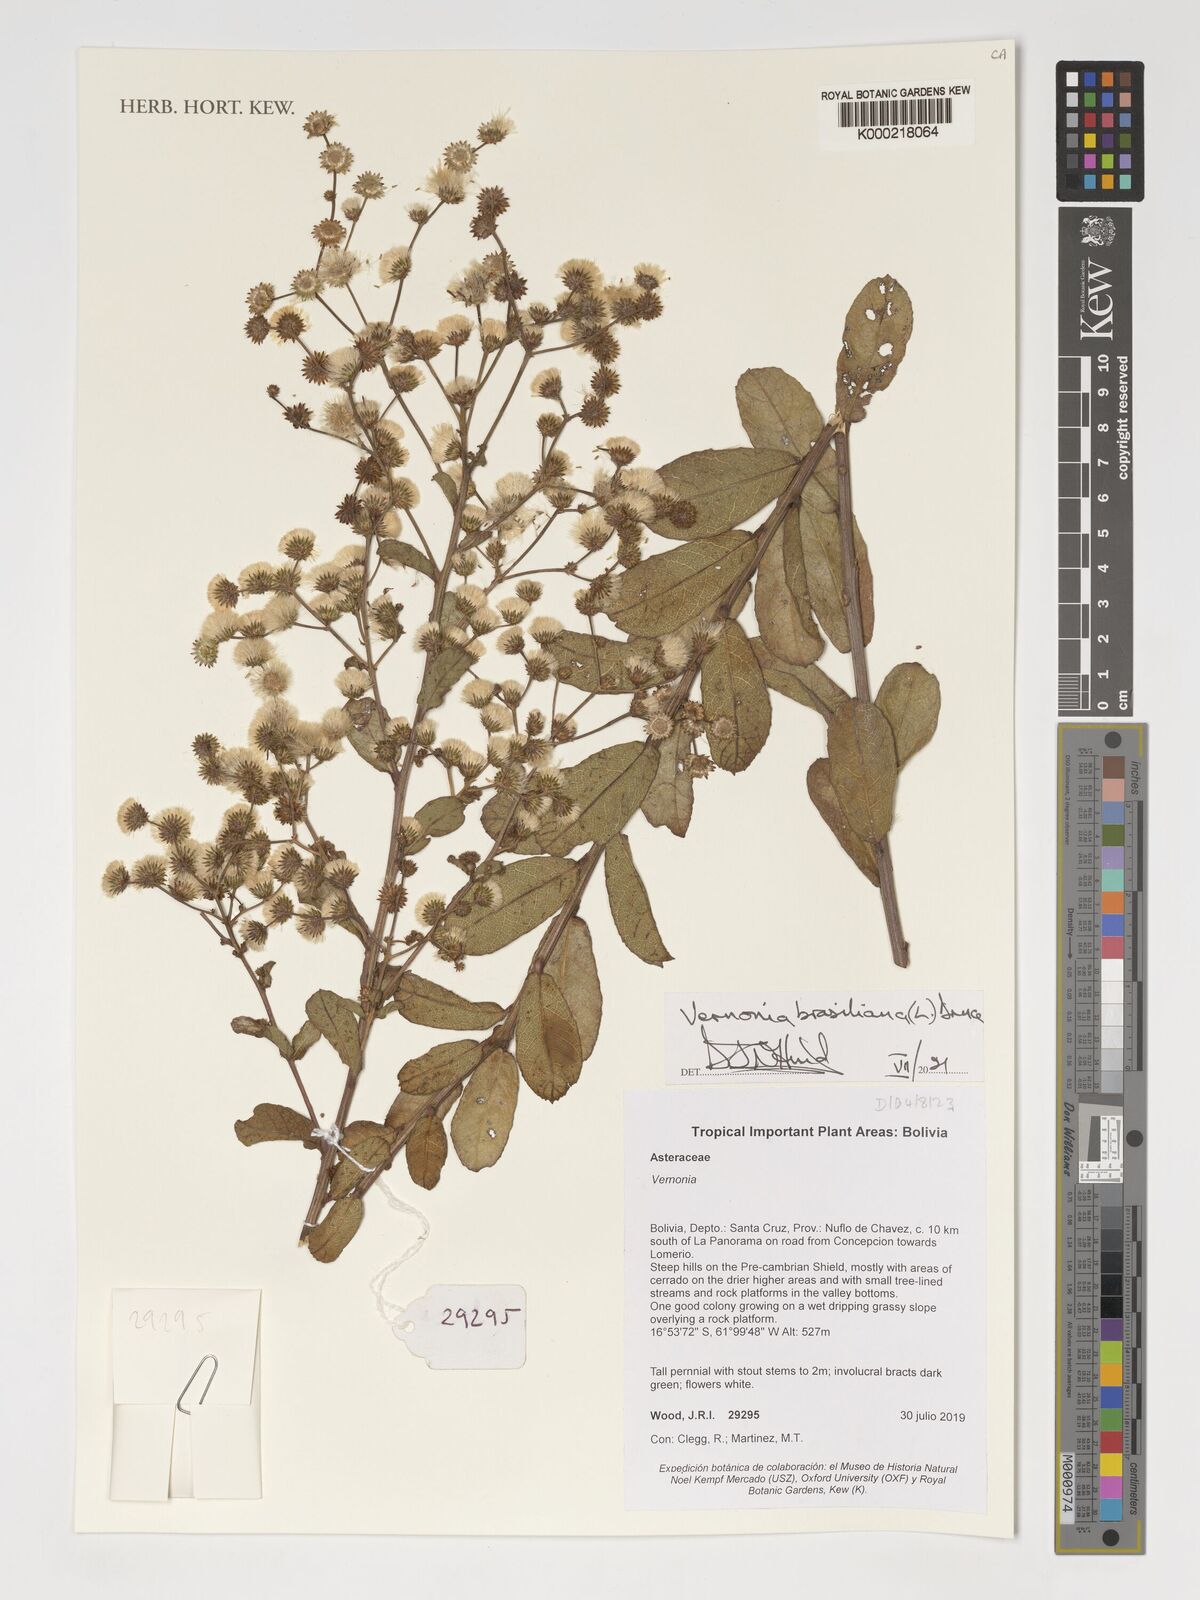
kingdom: Plantae
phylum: Tracheophyta
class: Magnoliopsida
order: Asterales
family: Asteraceae
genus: Vernonanthura
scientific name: Vernonanthura brasiliana
